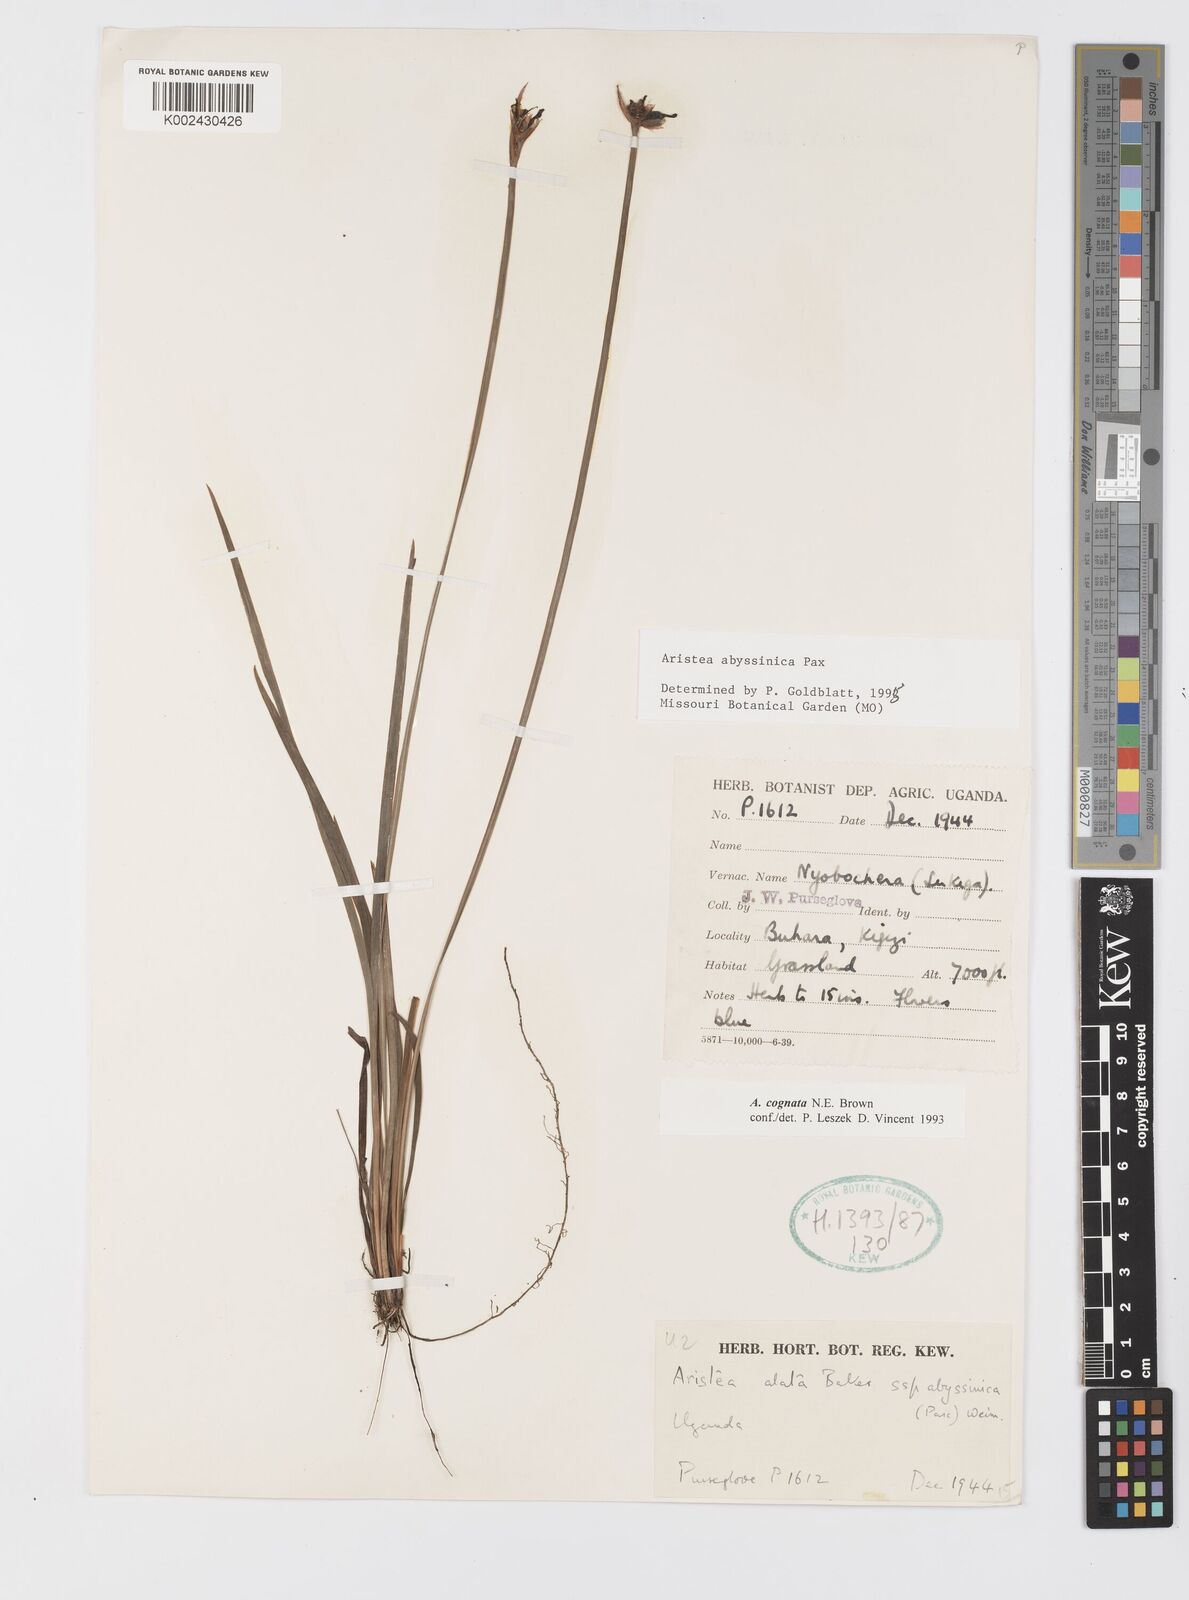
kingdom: Plantae
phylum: Tracheophyta
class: Liliopsida
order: Asparagales
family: Iridaceae
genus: Aristea
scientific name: Aristea abyssinica
